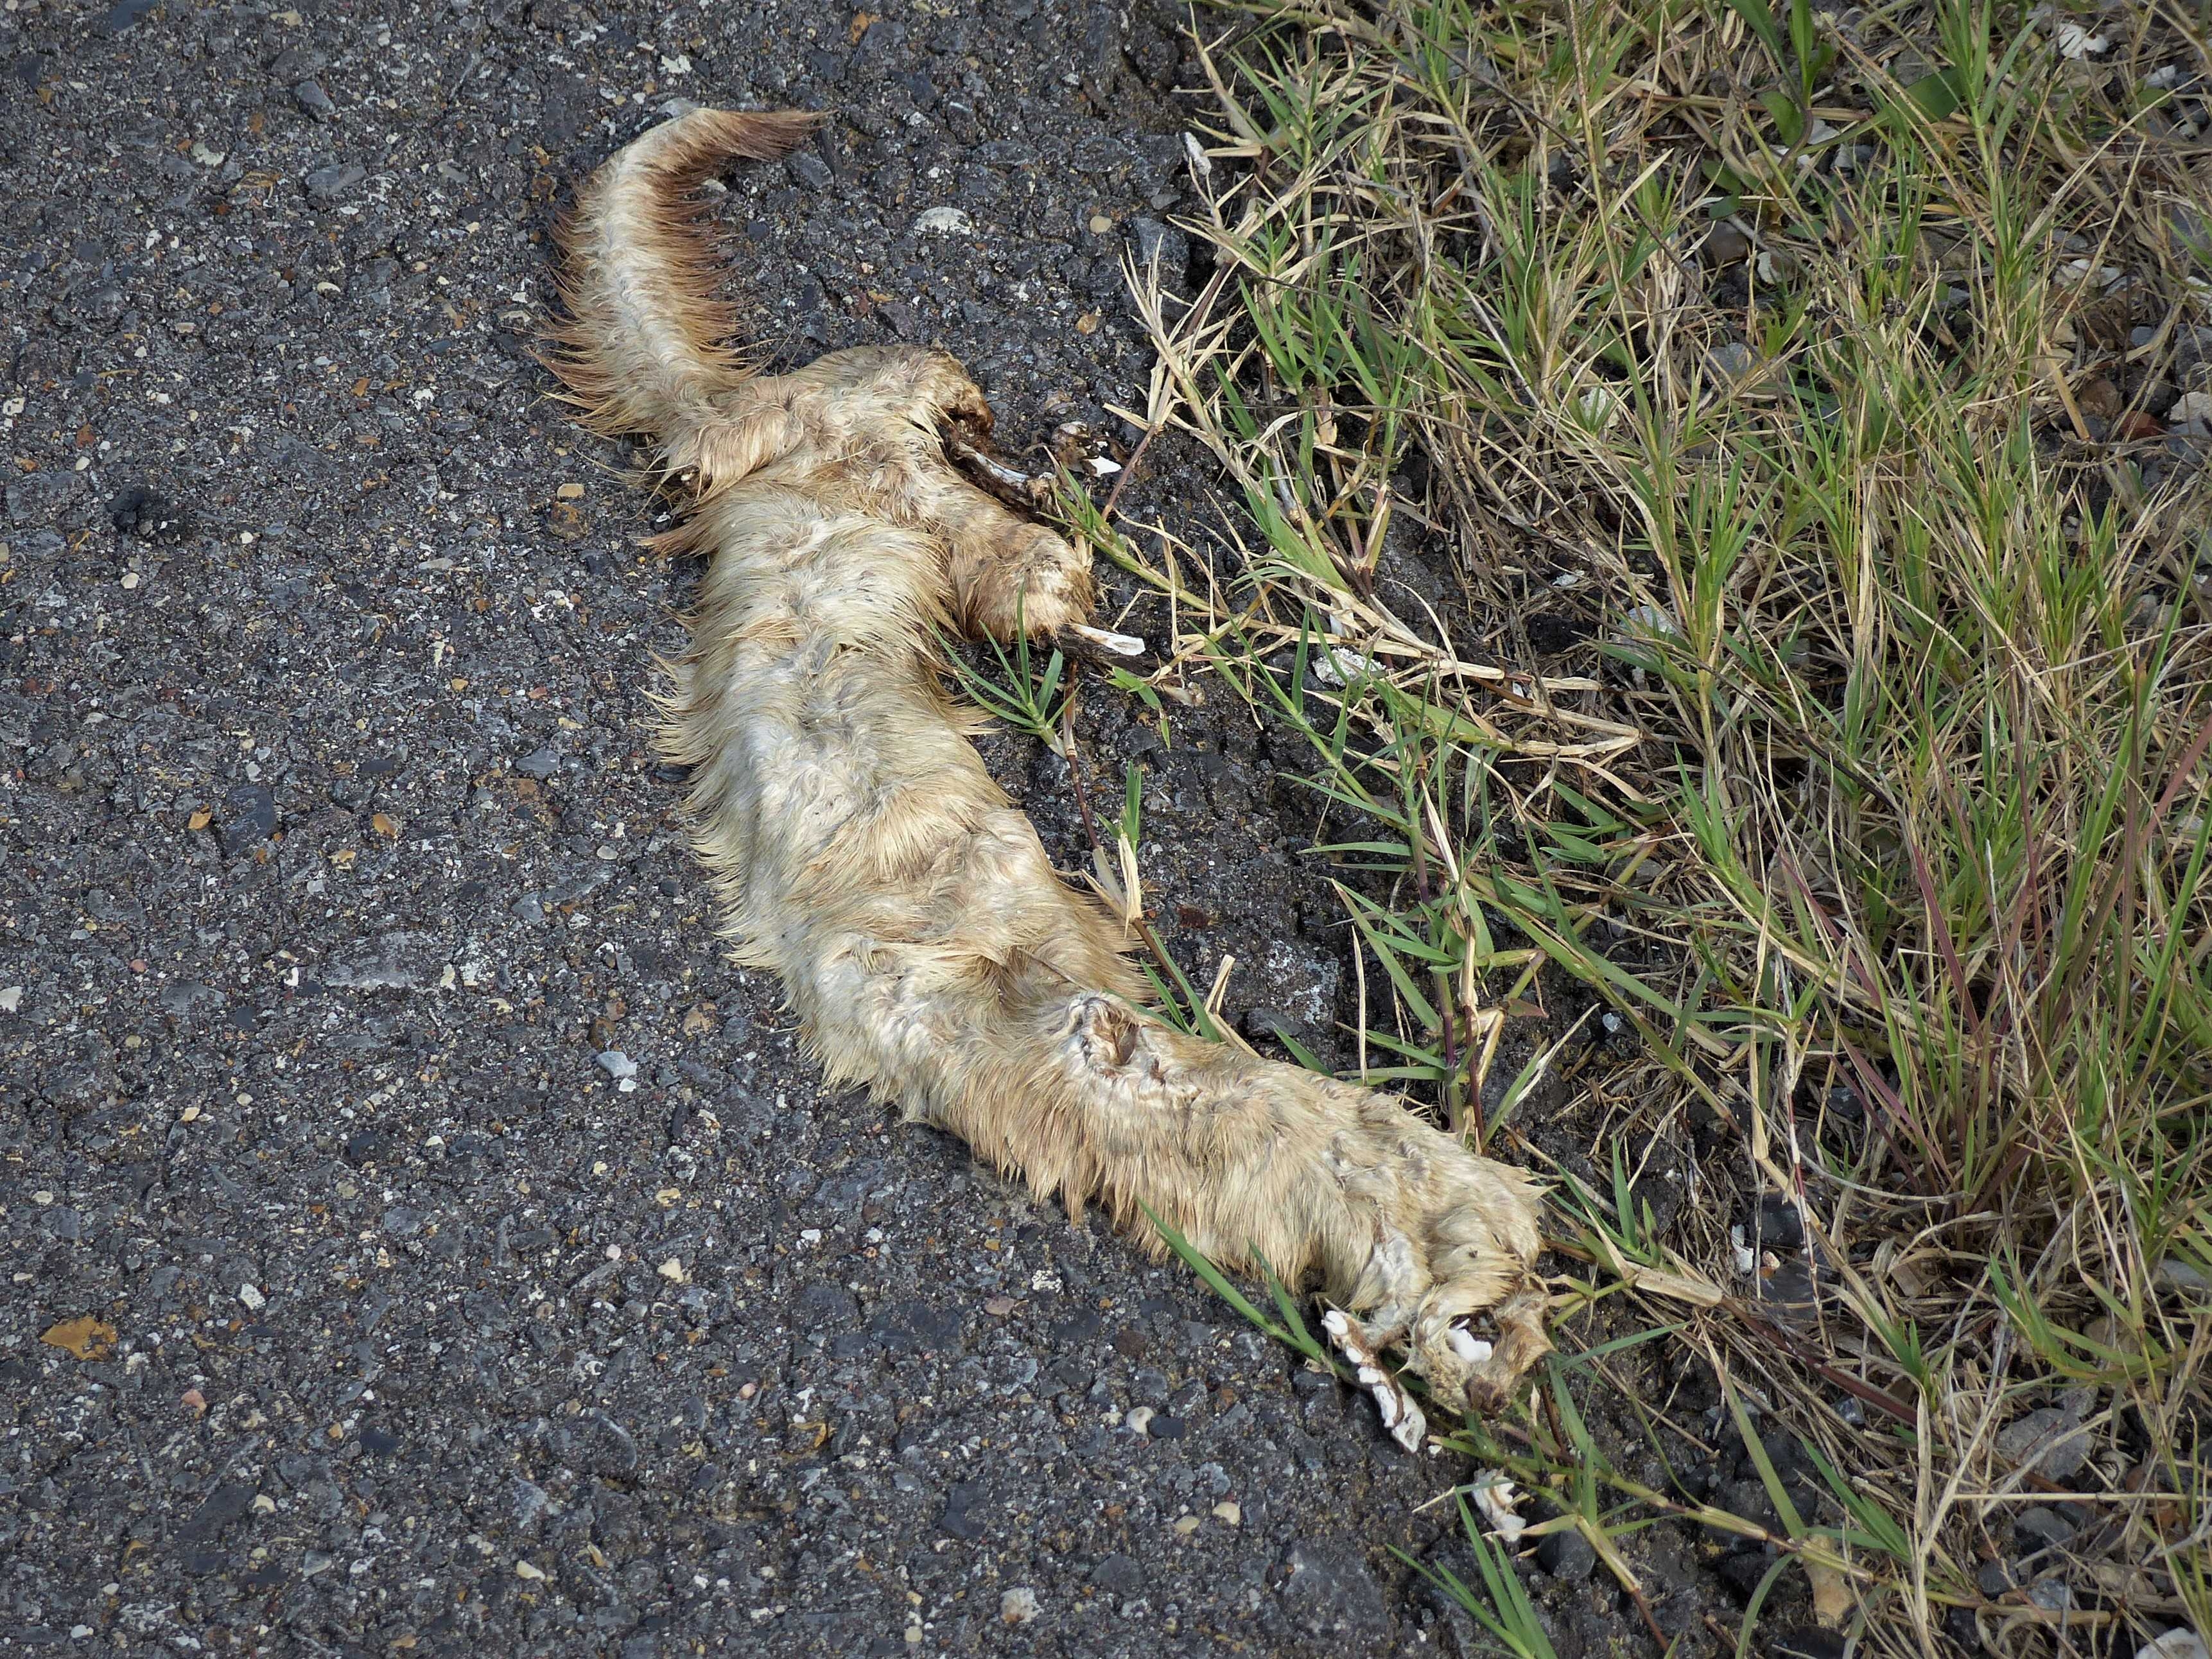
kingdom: Animalia
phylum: Chordata
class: Mammalia
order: Carnivora
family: Mustelidae
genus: Mustela
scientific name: Mustela frenata
